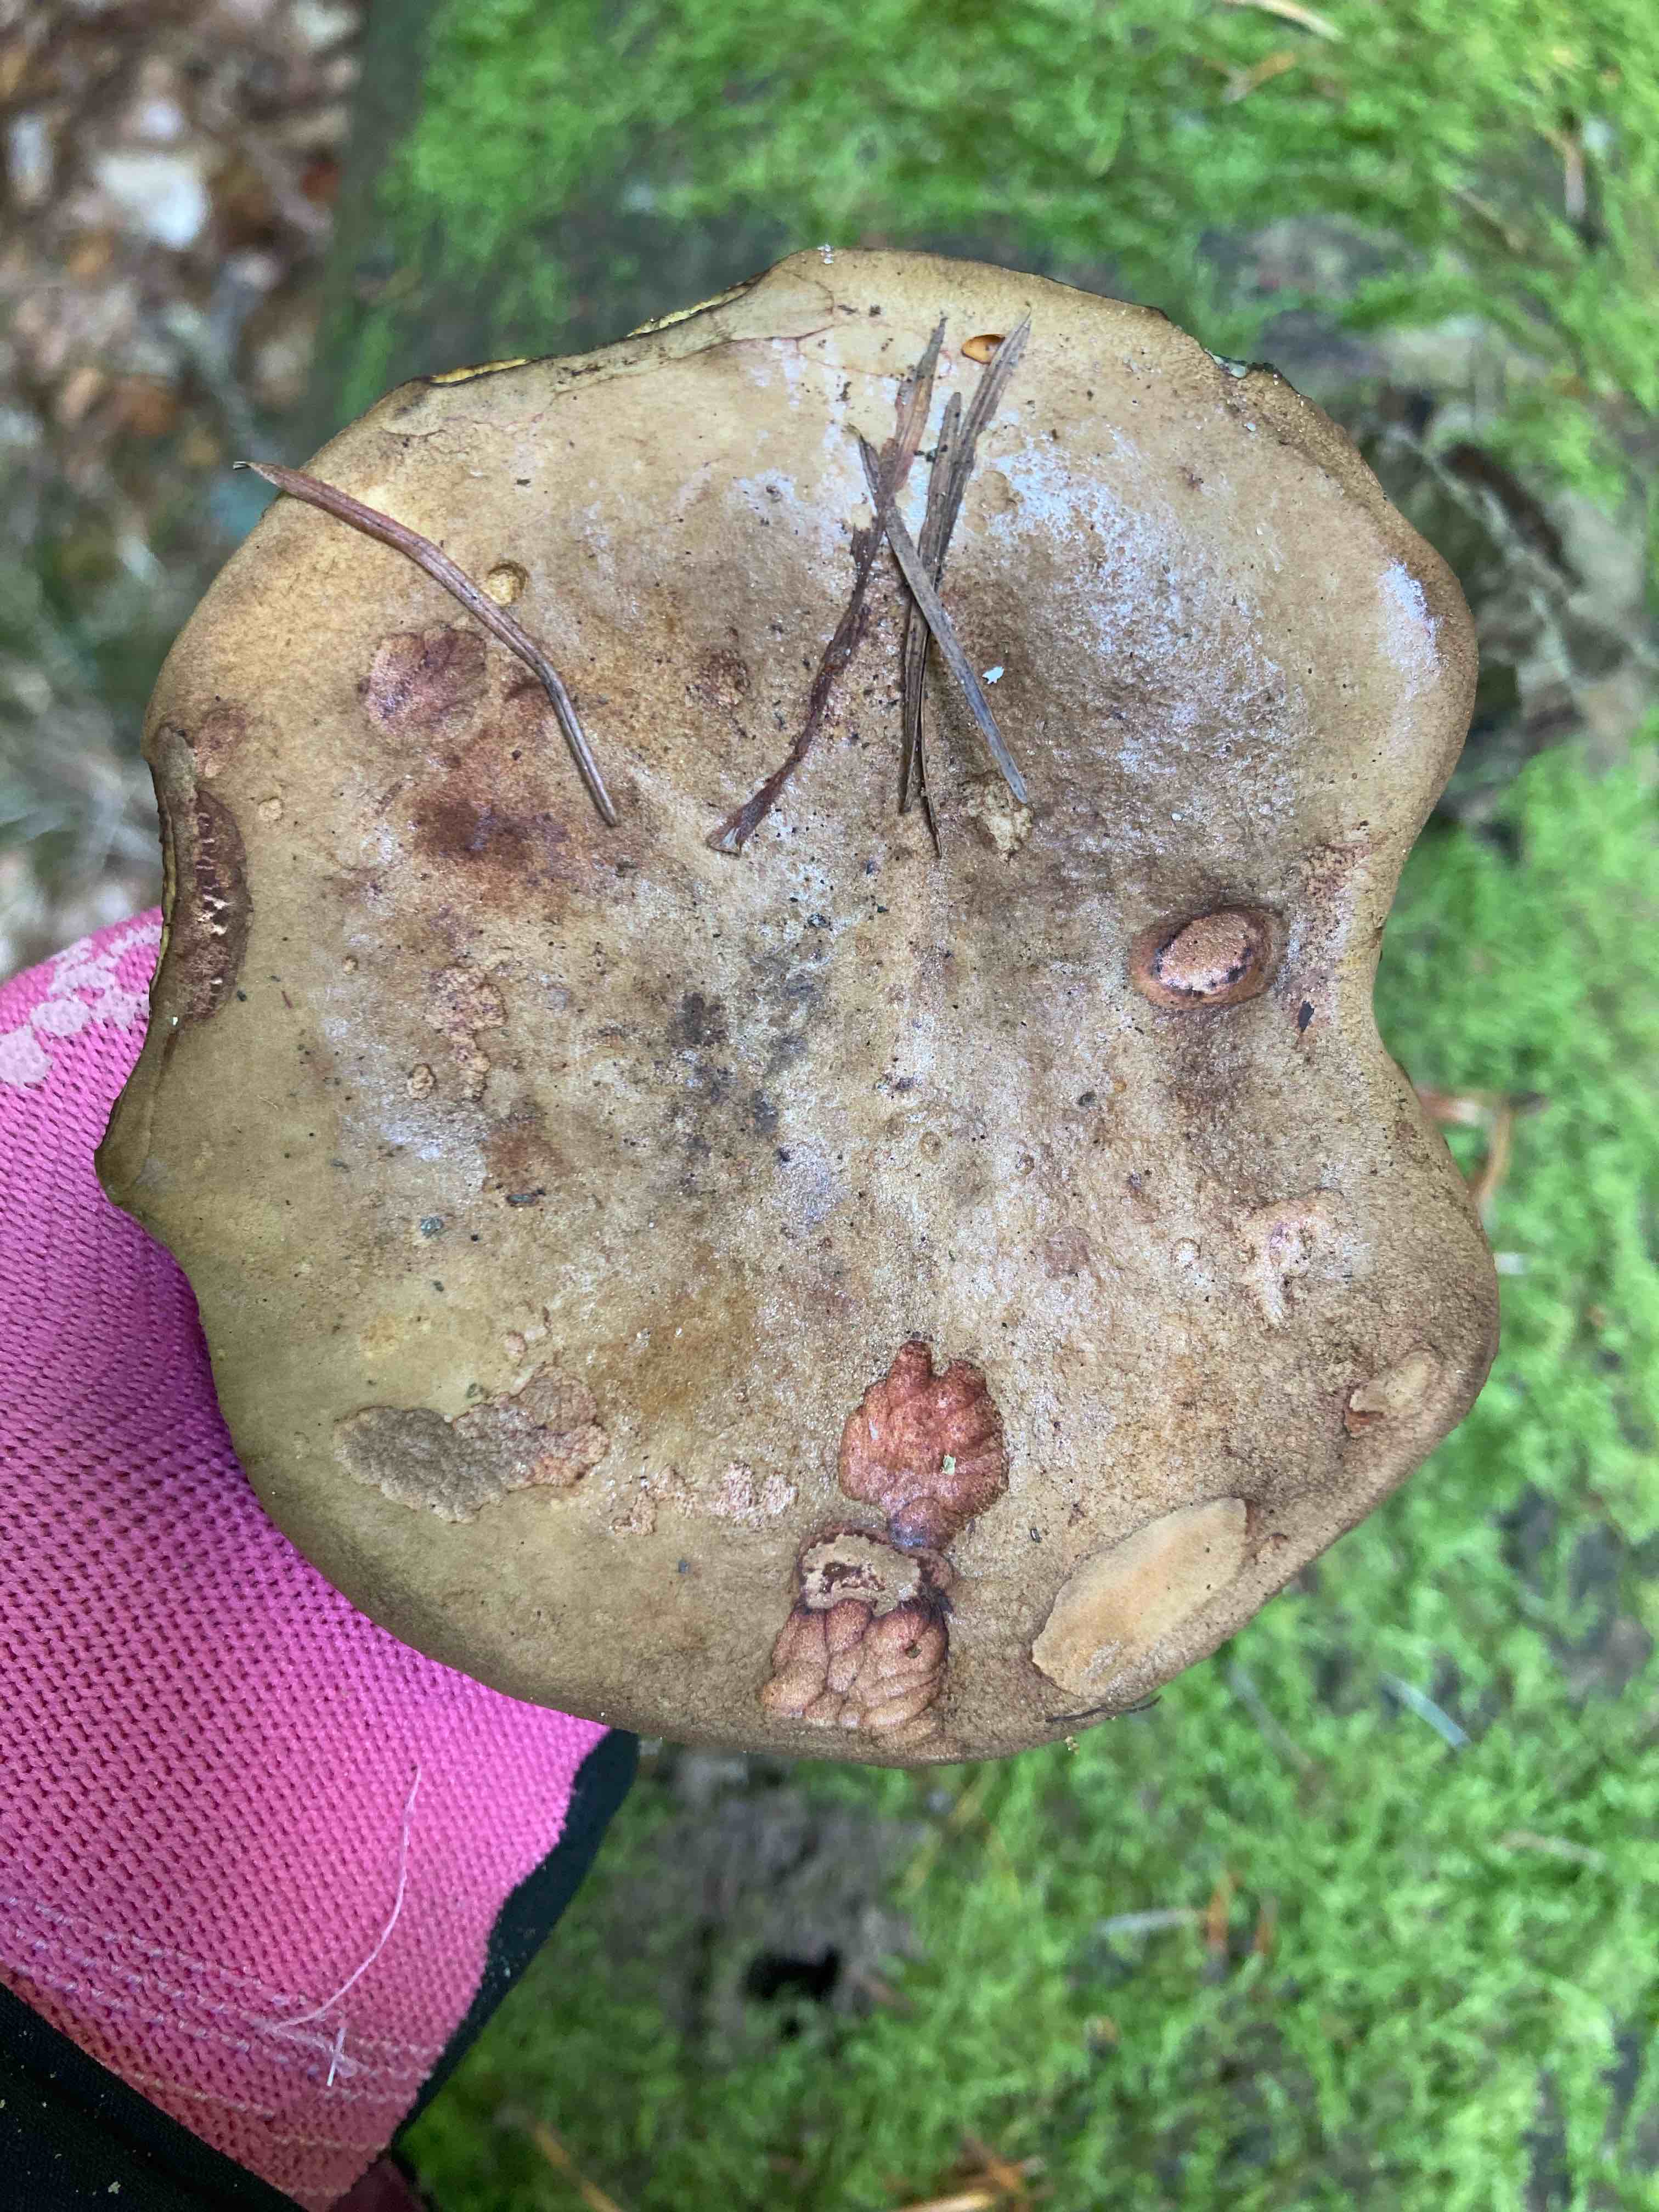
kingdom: Fungi
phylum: Basidiomycota
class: Agaricomycetes
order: Boletales
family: Boletaceae
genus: Cyanoboletus
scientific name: Cyanoboletus pulverulentus
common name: sortblånende rørhat
